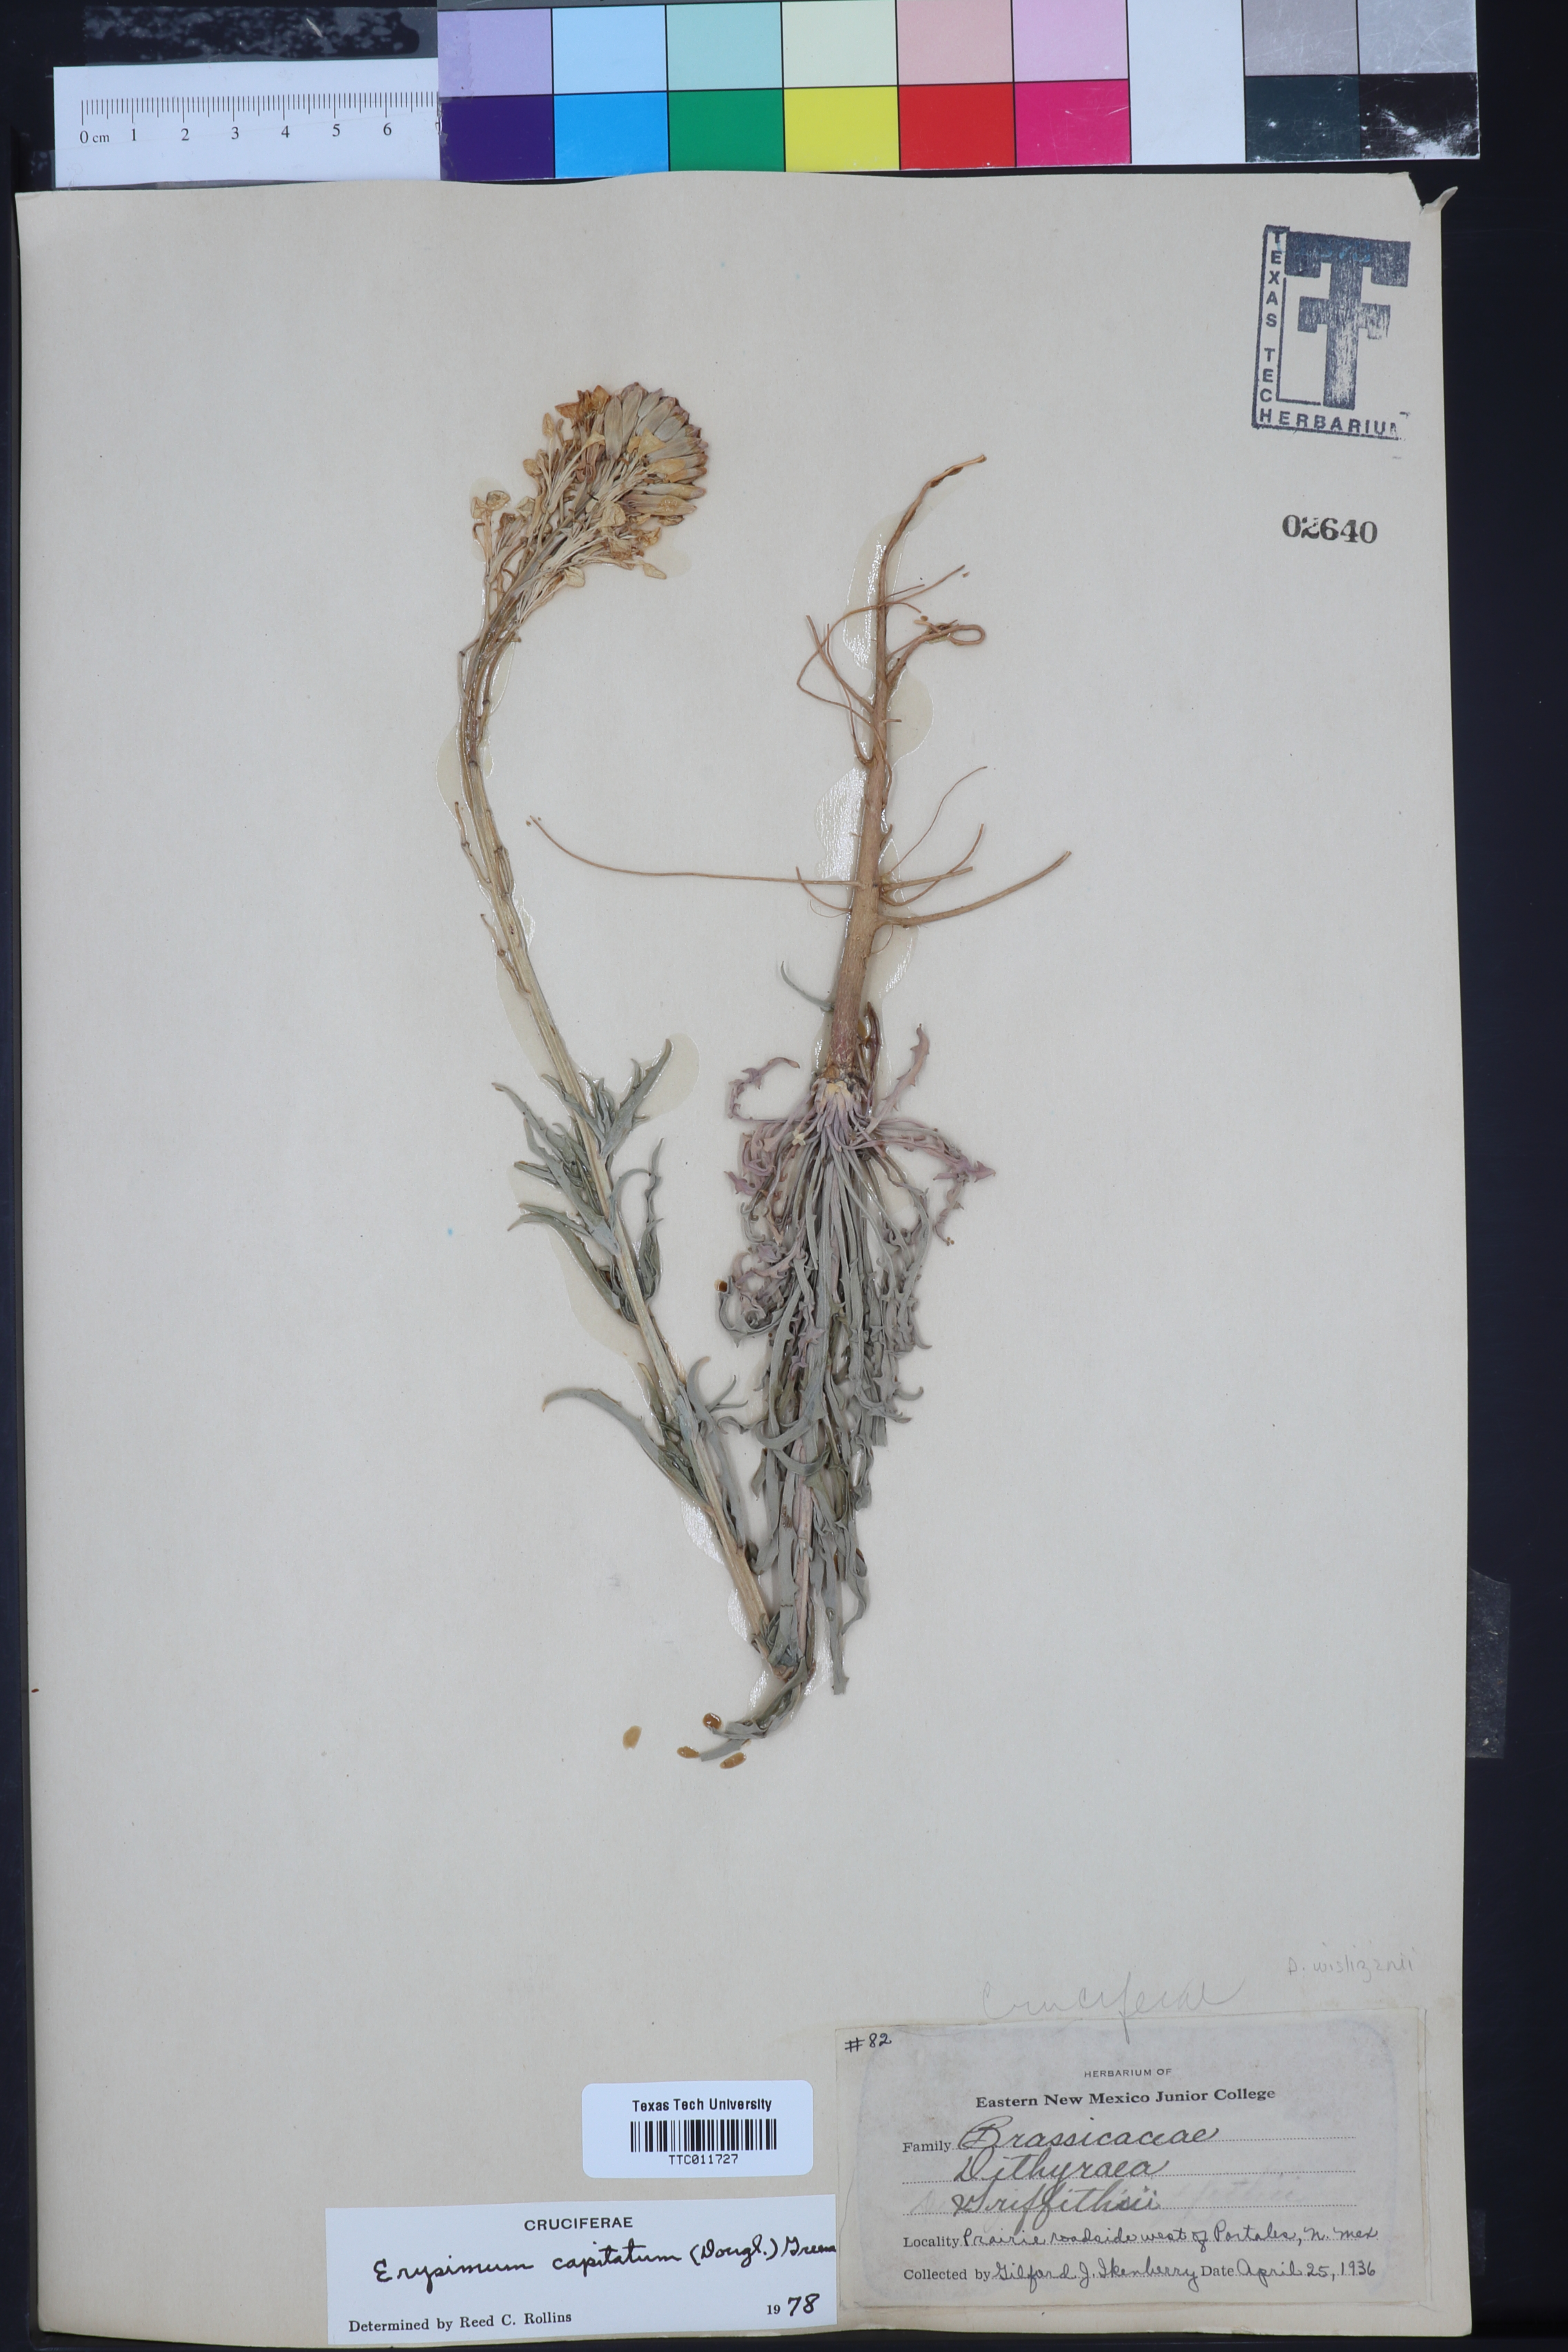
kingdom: Plantae
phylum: Tracheophyta
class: Magnoliopsida
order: Brassicales
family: Brassicaceae
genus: Erysimum
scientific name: Erysimum capitatum
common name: Western wallflower
